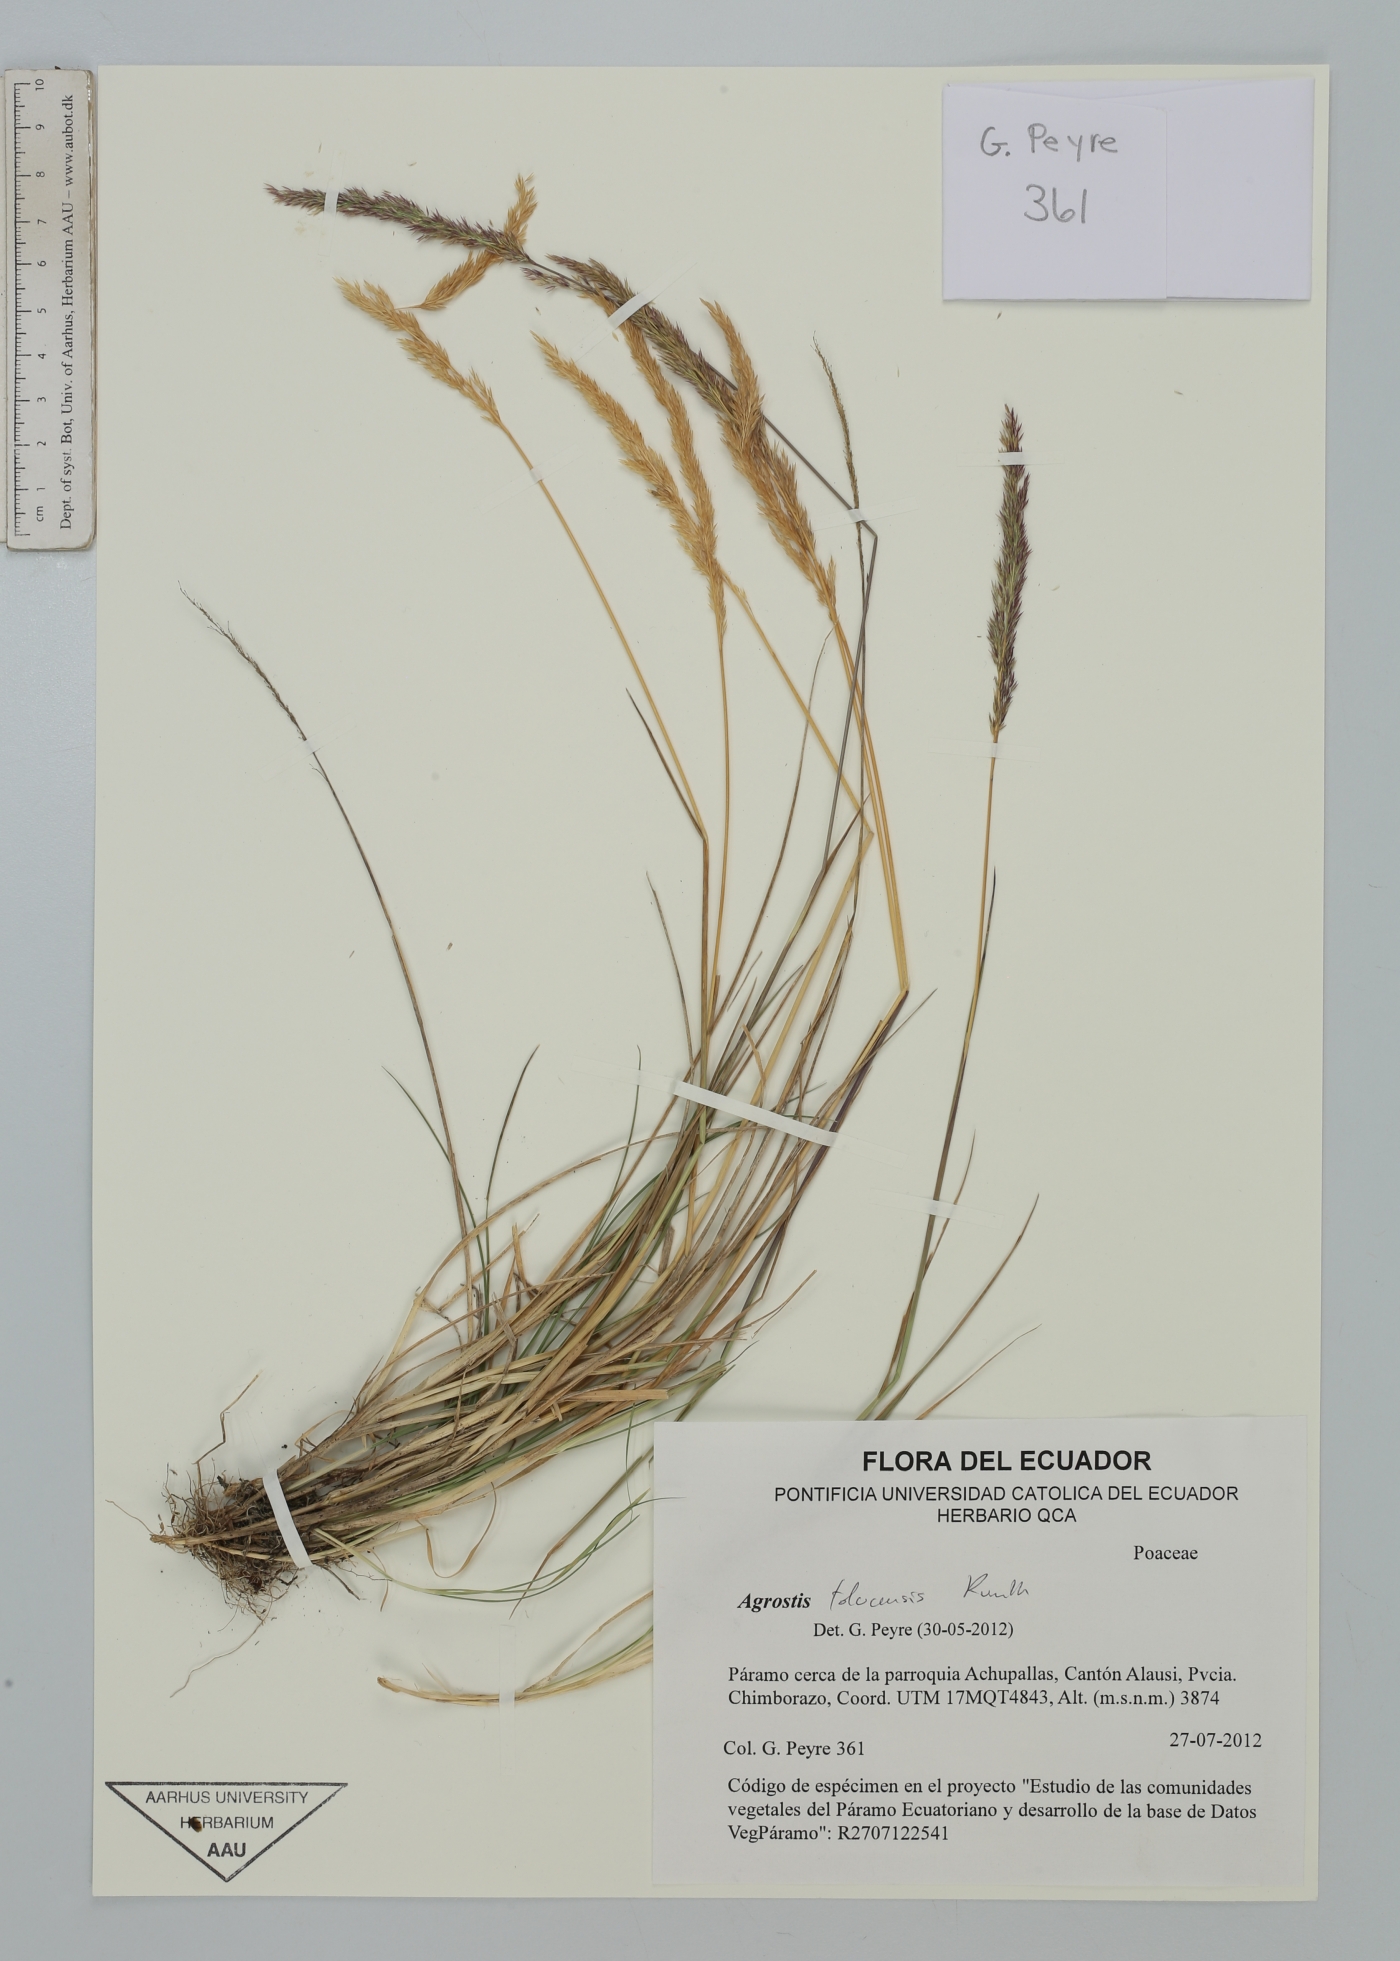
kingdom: Plantae
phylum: Tracheophyta
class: Liliopsida
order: Poales
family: Poaceae
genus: Agrostis
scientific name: Agrostis tolucensis
